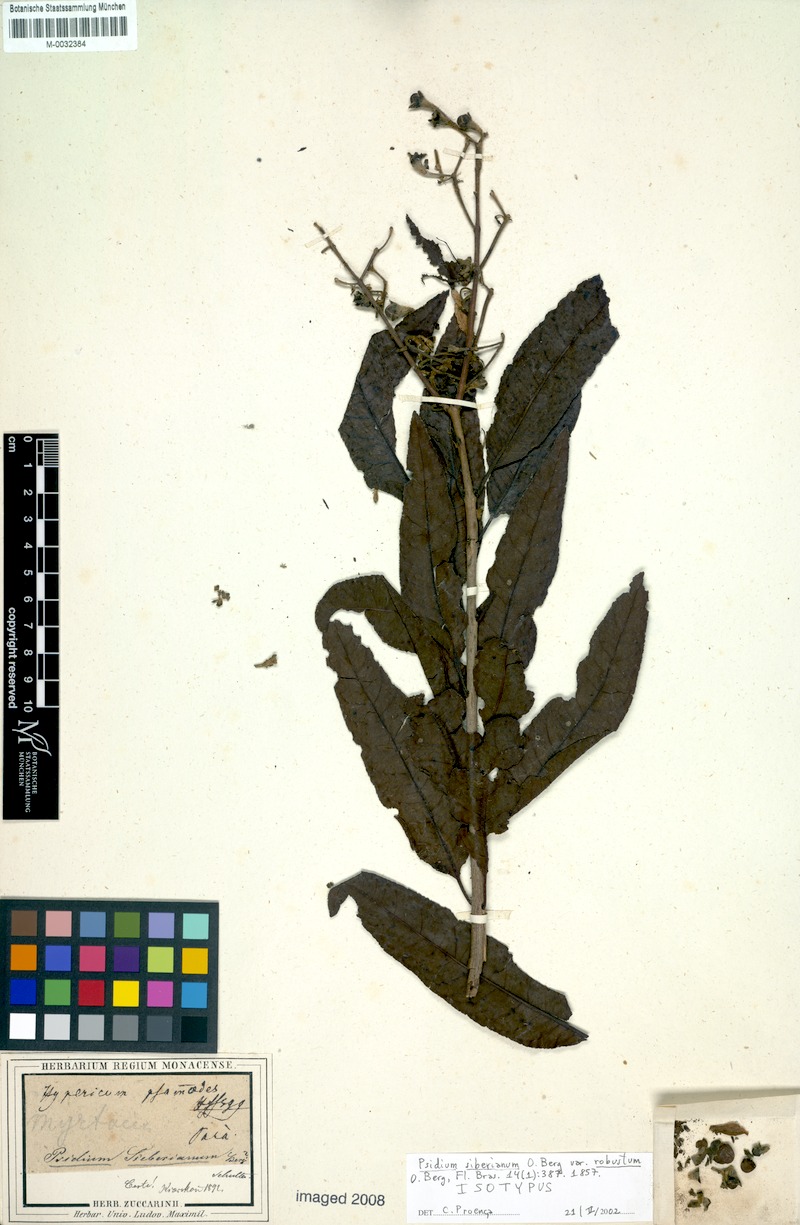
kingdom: Plantae
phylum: Tracheophyta
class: Magnoliopsida
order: Myrtales
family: Myrtaceae
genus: Psidium
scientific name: Psidium riparium
